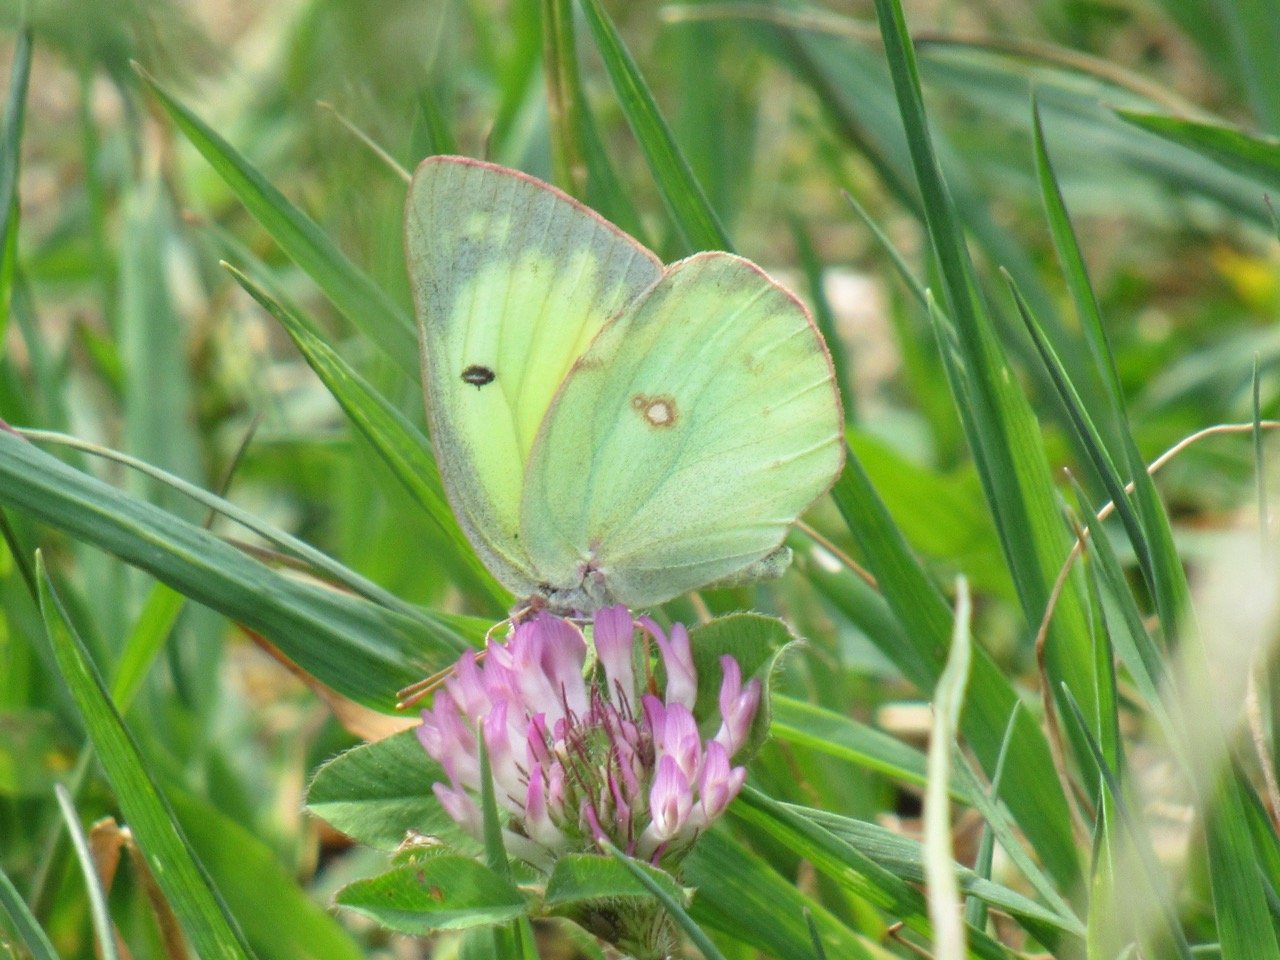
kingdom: Animalia
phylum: Arthropoda
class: Insecta
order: Lepidoptera
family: Pieridae
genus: Colias
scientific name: Colias philodice
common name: Clouded Sulphur
